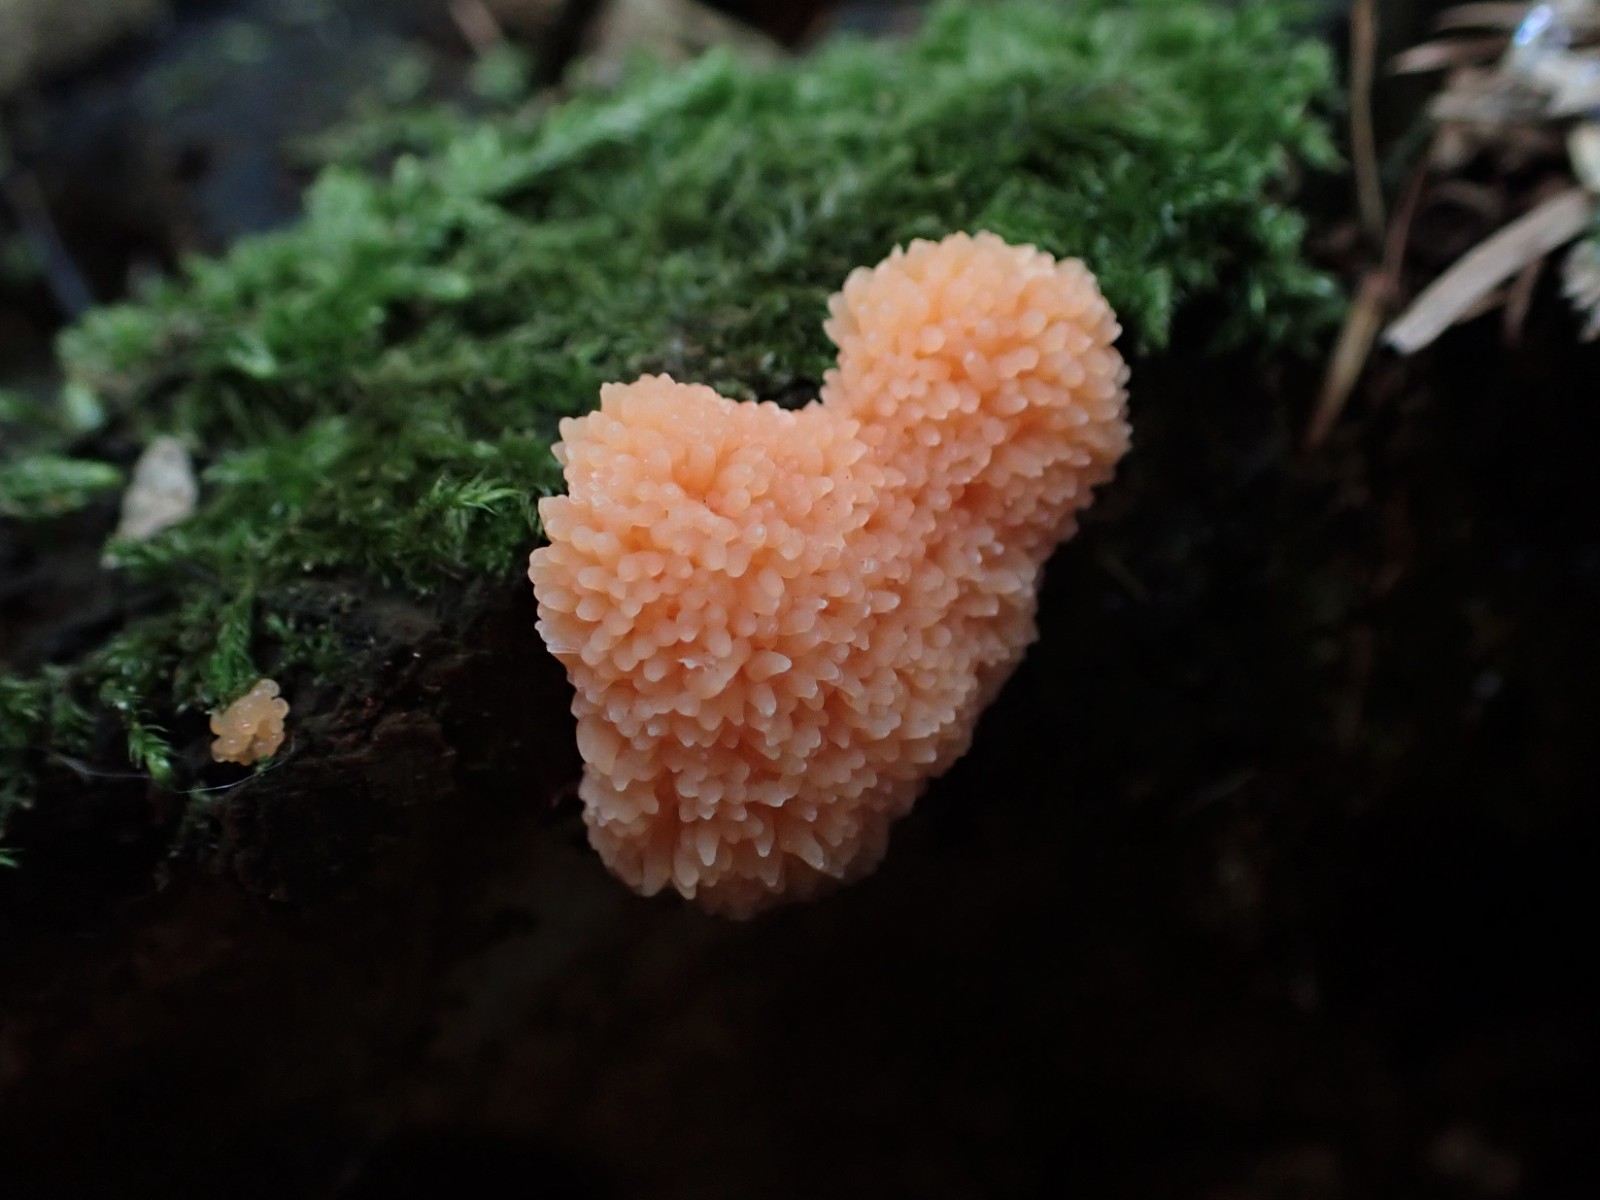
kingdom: Protozoa
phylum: Mycetozoa
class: Myxomycetes
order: Cribrariales
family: Tubiferaceae
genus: Tubifera
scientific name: Tubifera ferruginosa
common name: kanel-støvrør
